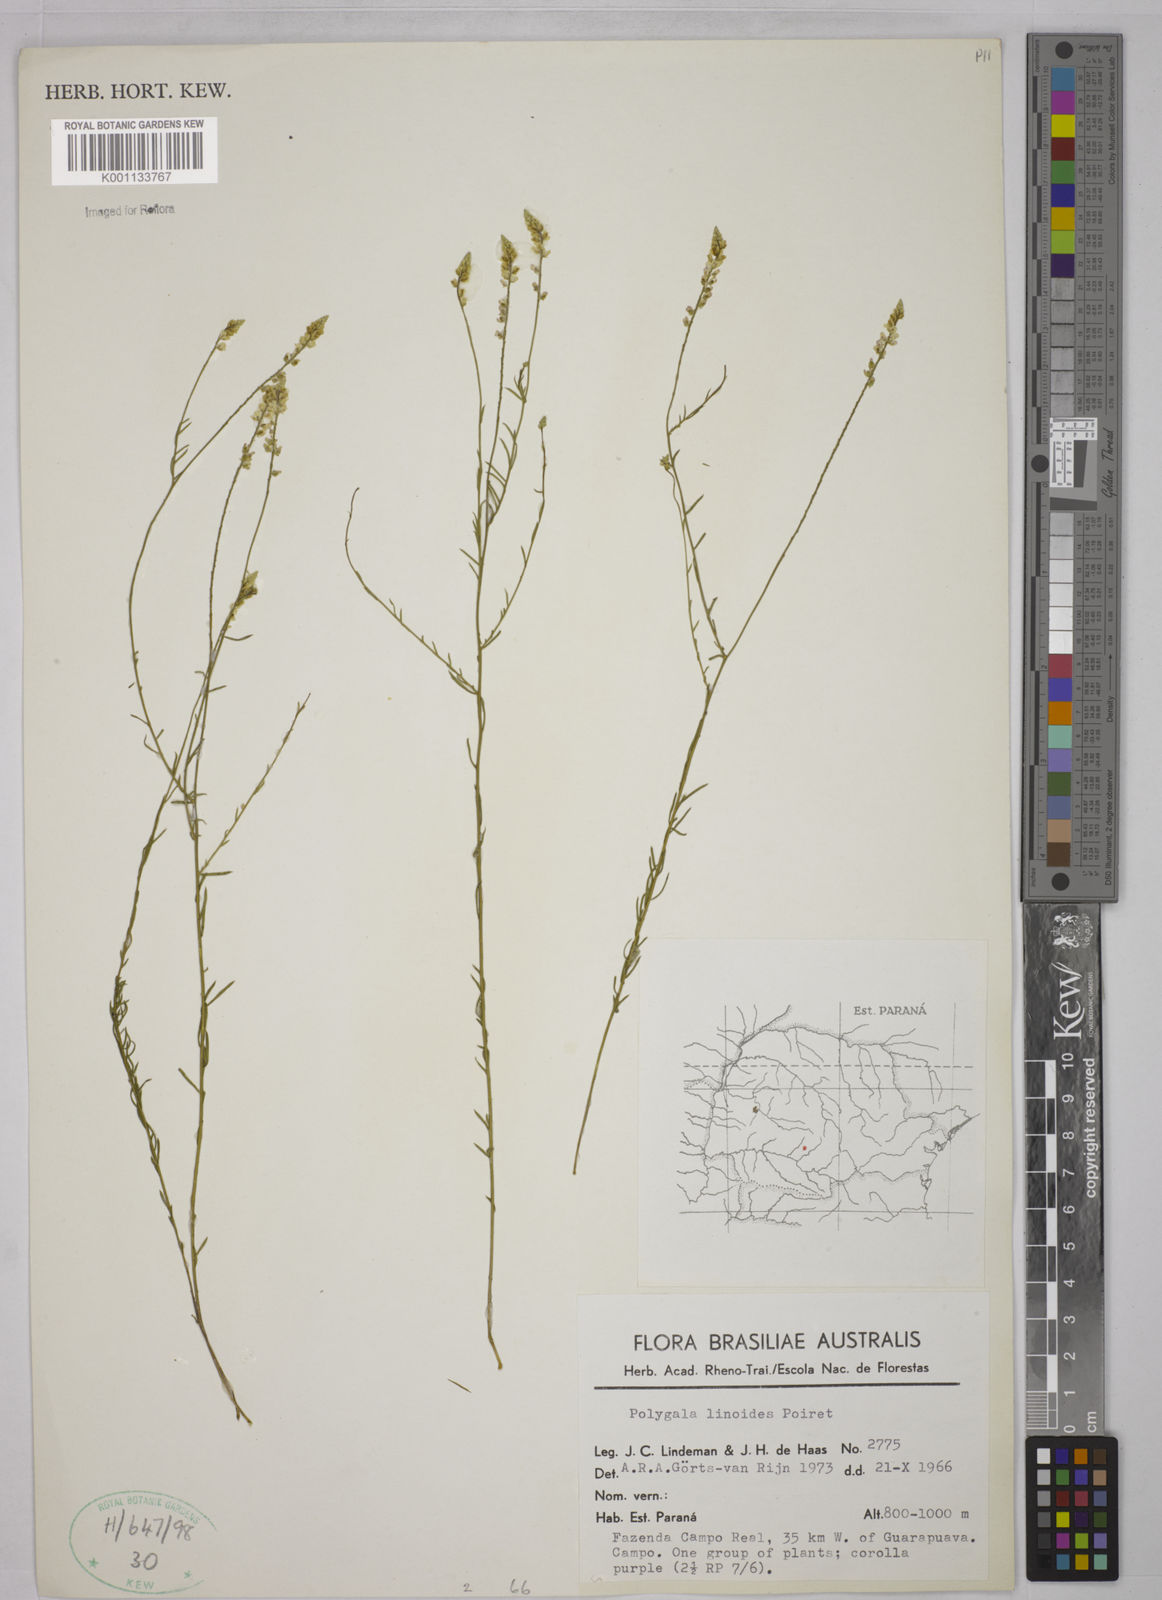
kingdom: Plantae
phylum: Tracheophyta
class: Magnoliopsida
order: Fabales
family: Polygalaceae
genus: Polygala
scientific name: Polygala linoides
